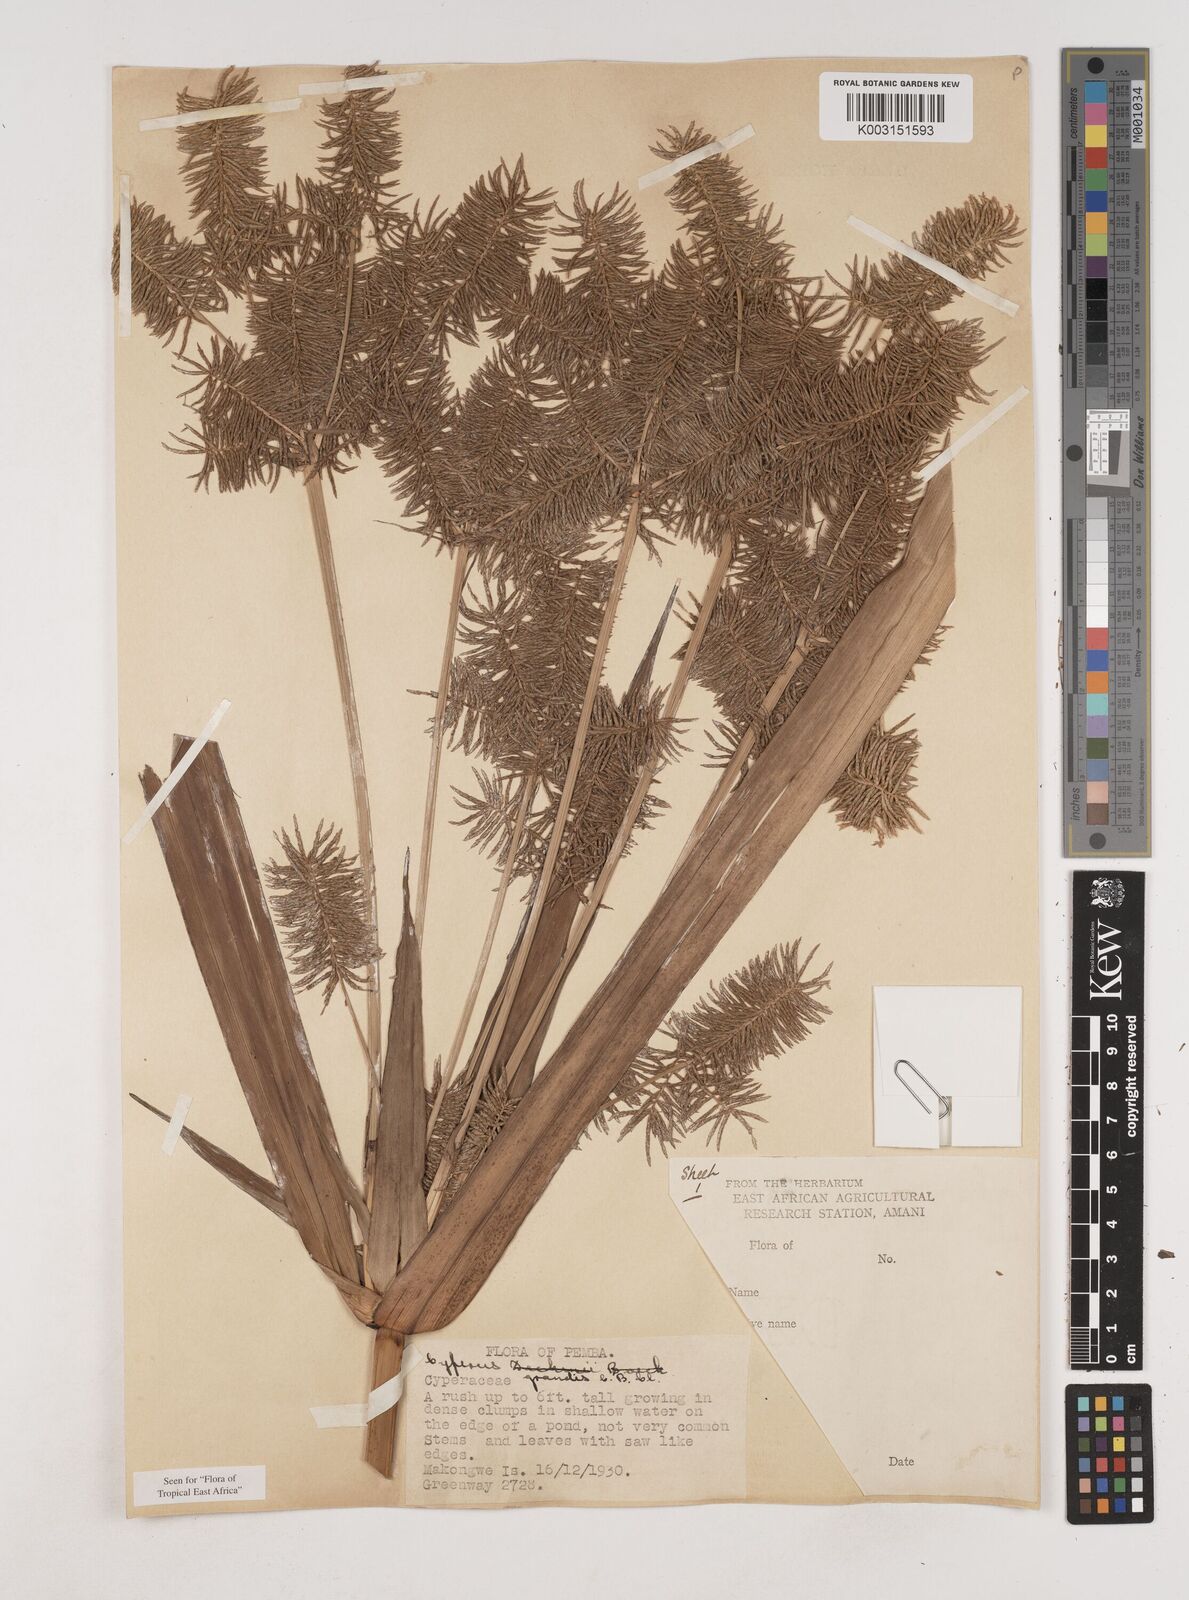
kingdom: Plantae
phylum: Tracheophyta
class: Liliopsida
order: Poales
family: Cyperaceae
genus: Cyperus
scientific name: Cyperus grandis
